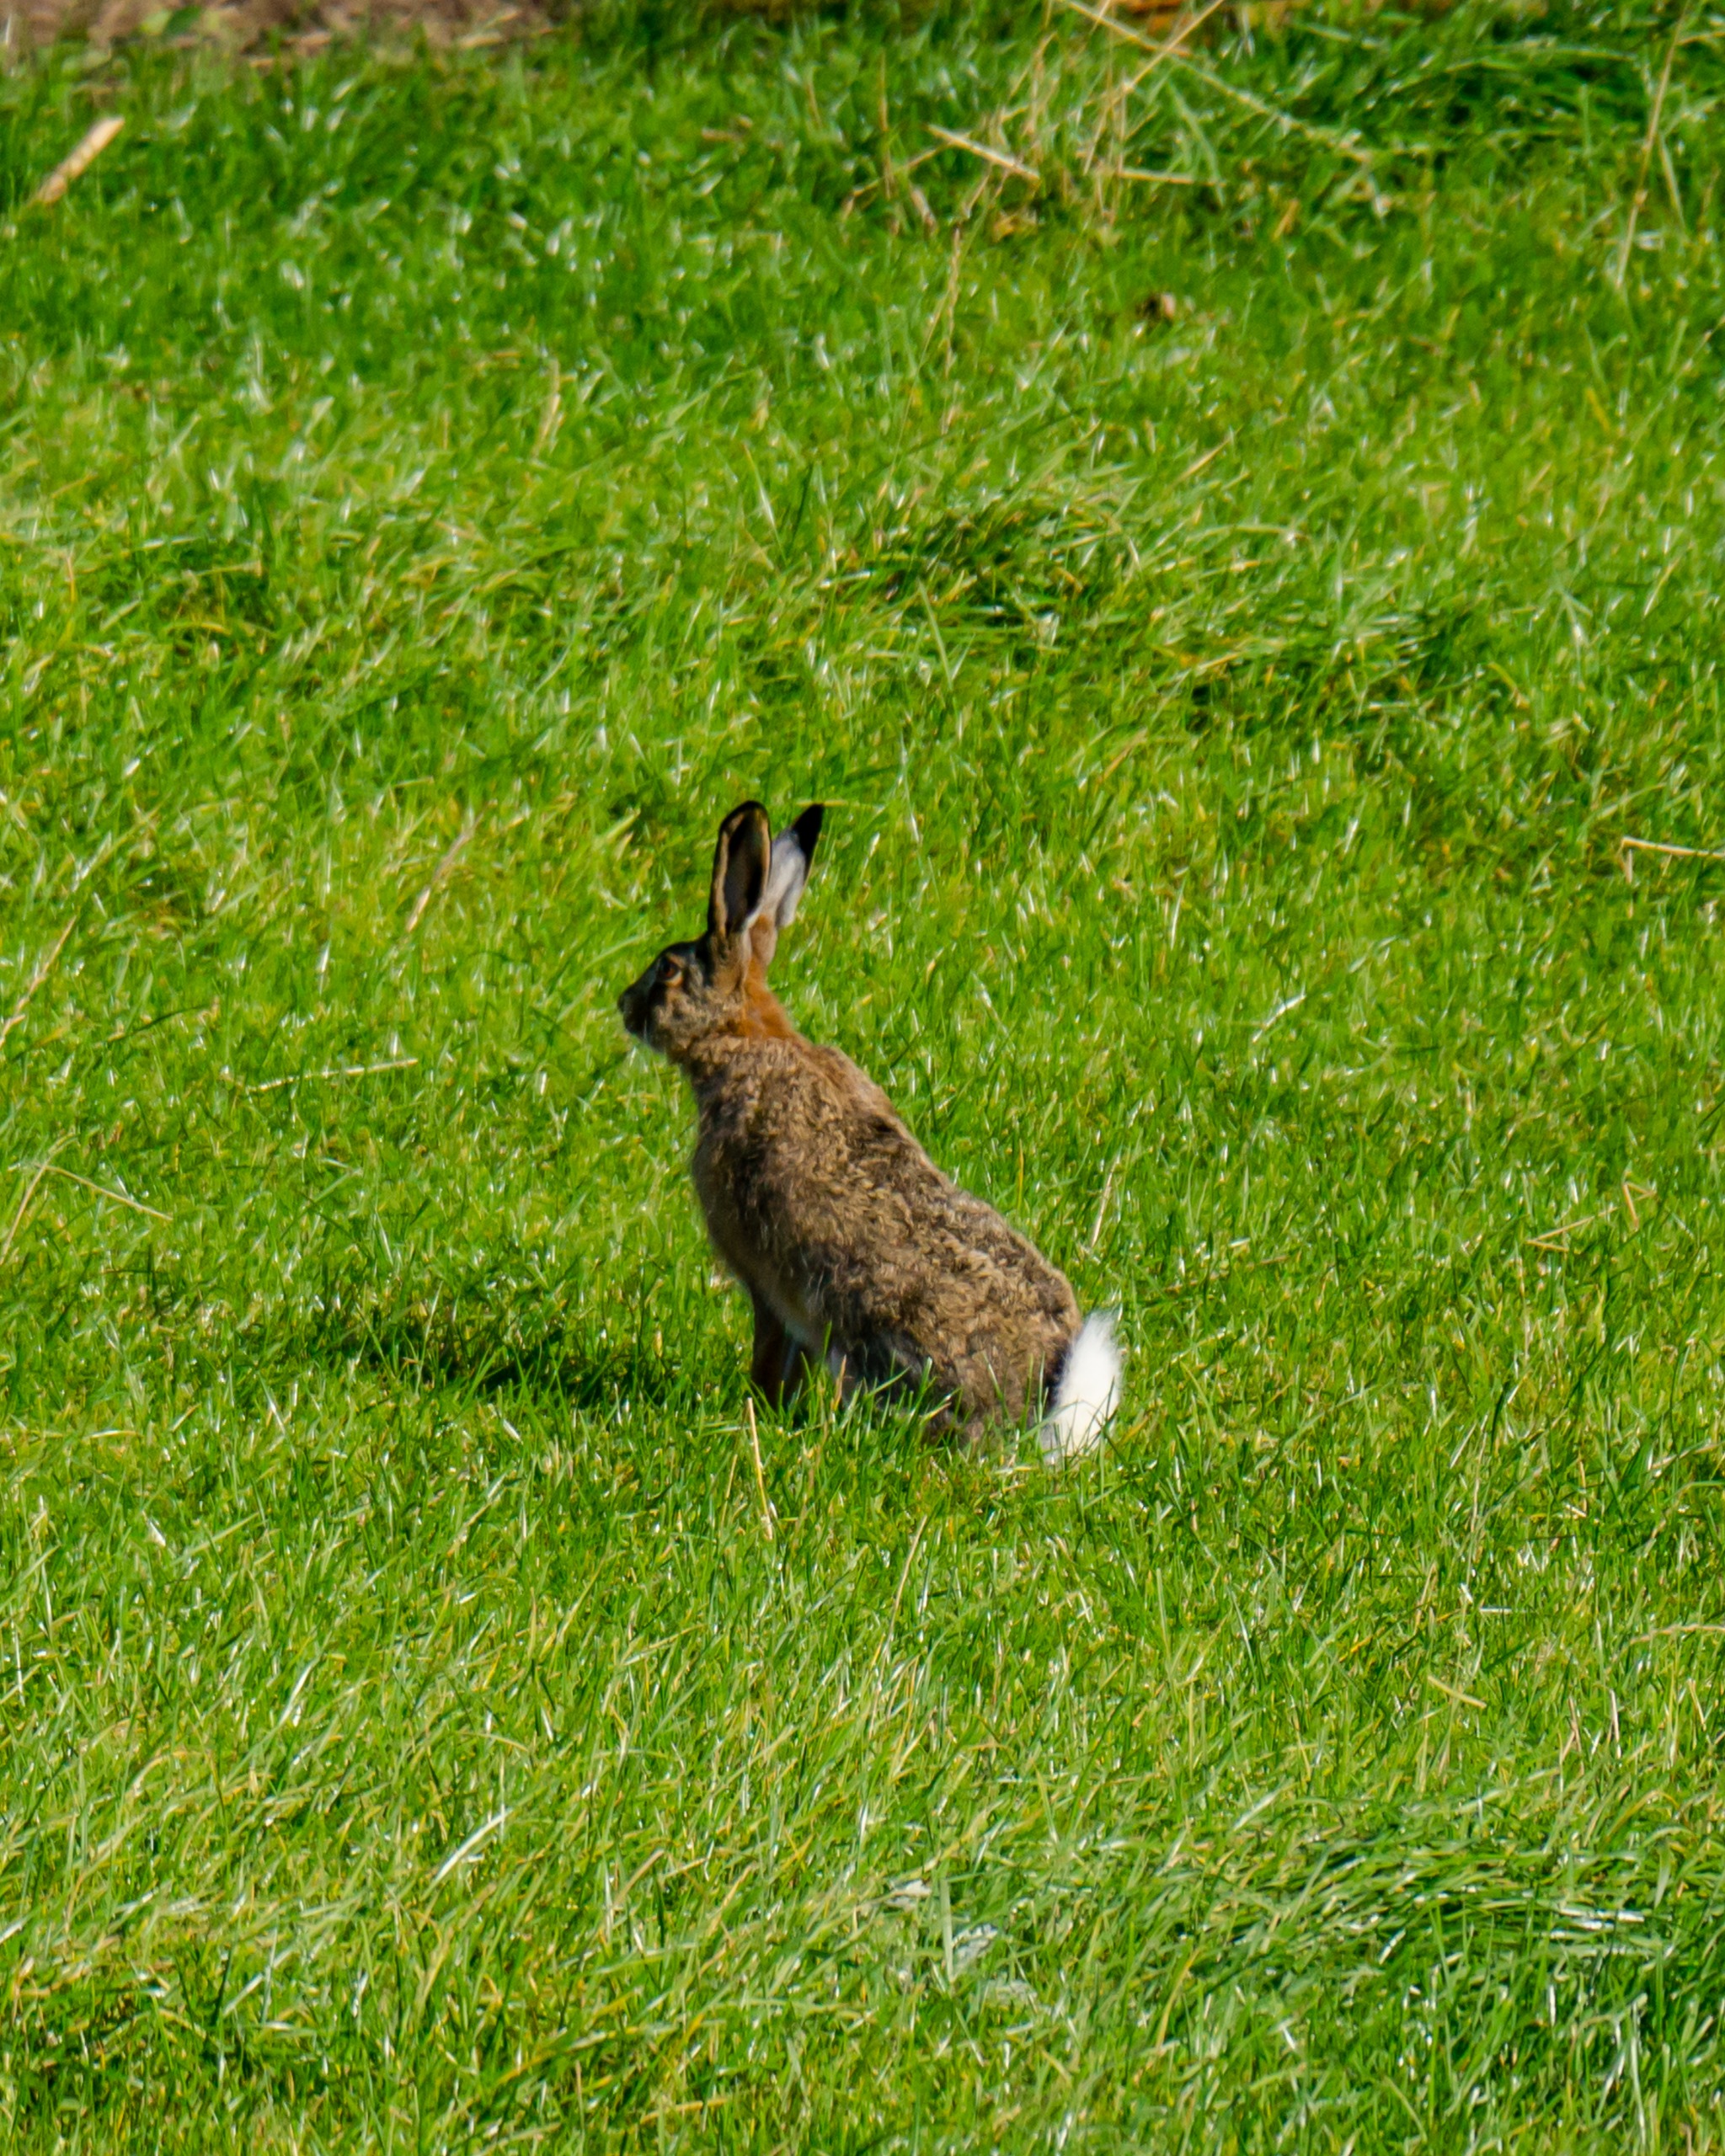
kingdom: Animalia
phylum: Chordata
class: Mammalia
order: Lagomorpha
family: Leporidae
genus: Lepus
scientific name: Lepus europaeus
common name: Hare
